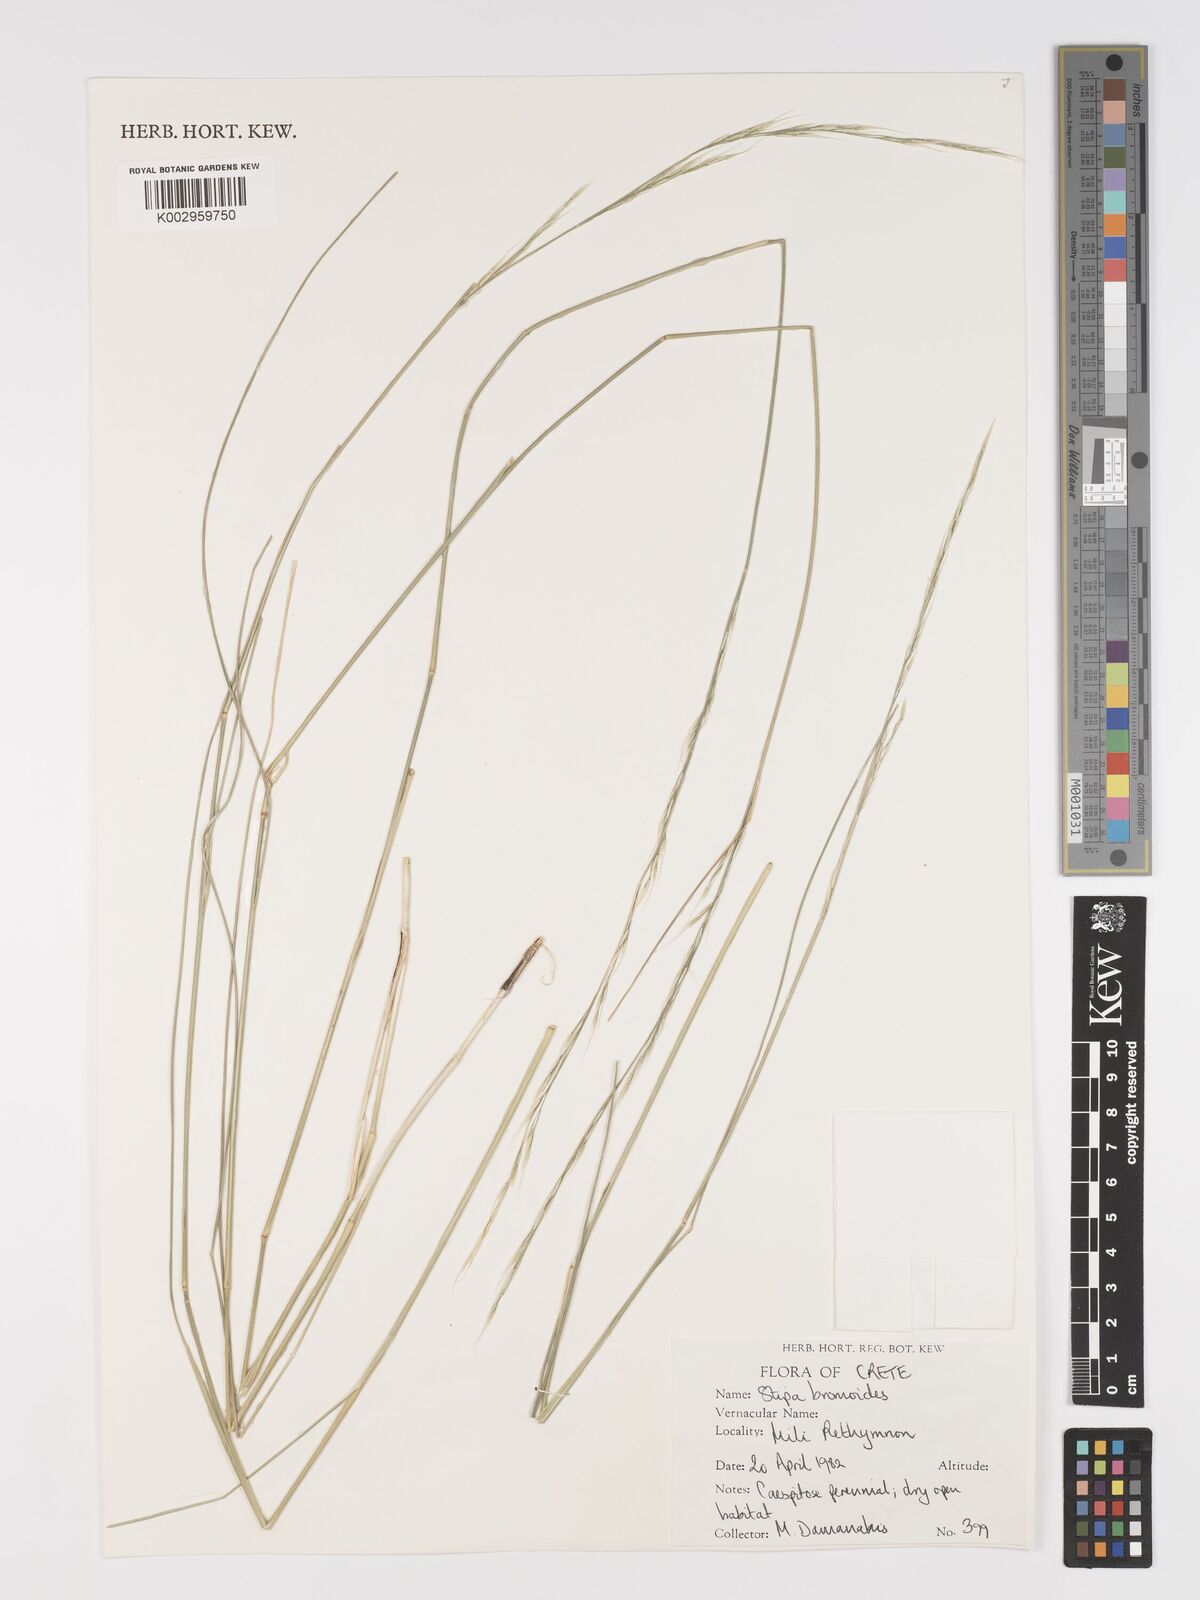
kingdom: Plantae
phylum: Tracheophyta
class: Liliopsida
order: Poales
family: Poaceae
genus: Achnatherum
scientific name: Achnatherum bromoides
